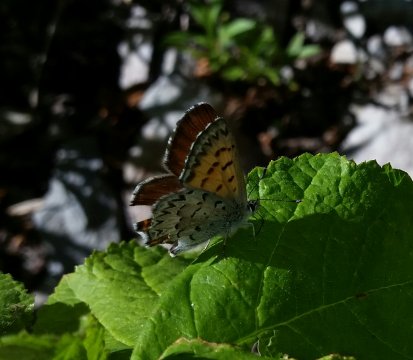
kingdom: Animalia
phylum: Arthropoda
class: Insecta
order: Lepidoptera
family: Lycaenidae
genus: Lycaena
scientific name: Lycaena mariposa
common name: Mariposa Copper
